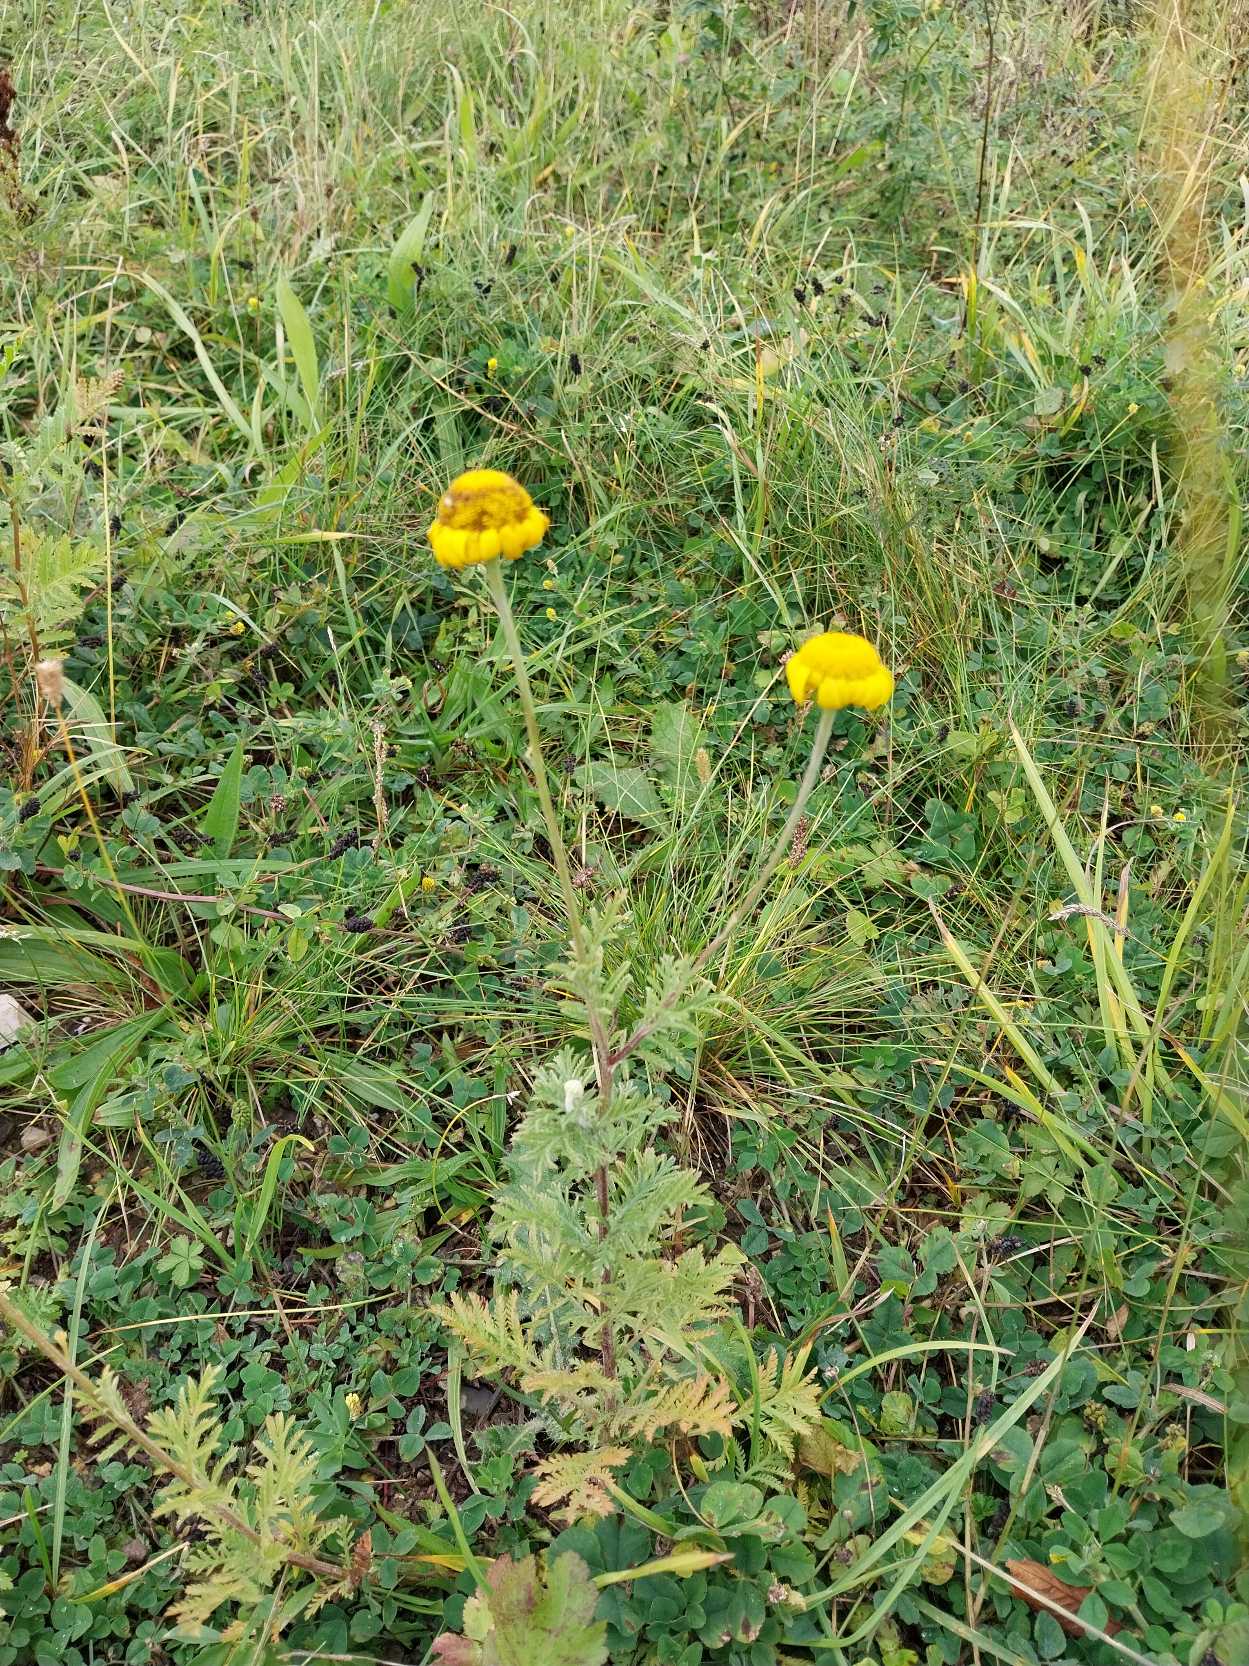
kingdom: Plantae
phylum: Tracheophyta
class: Magnoliopsida
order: Asterales
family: Asteraceae
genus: Cota
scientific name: Cota tinctoria
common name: Farve-gåseurt
